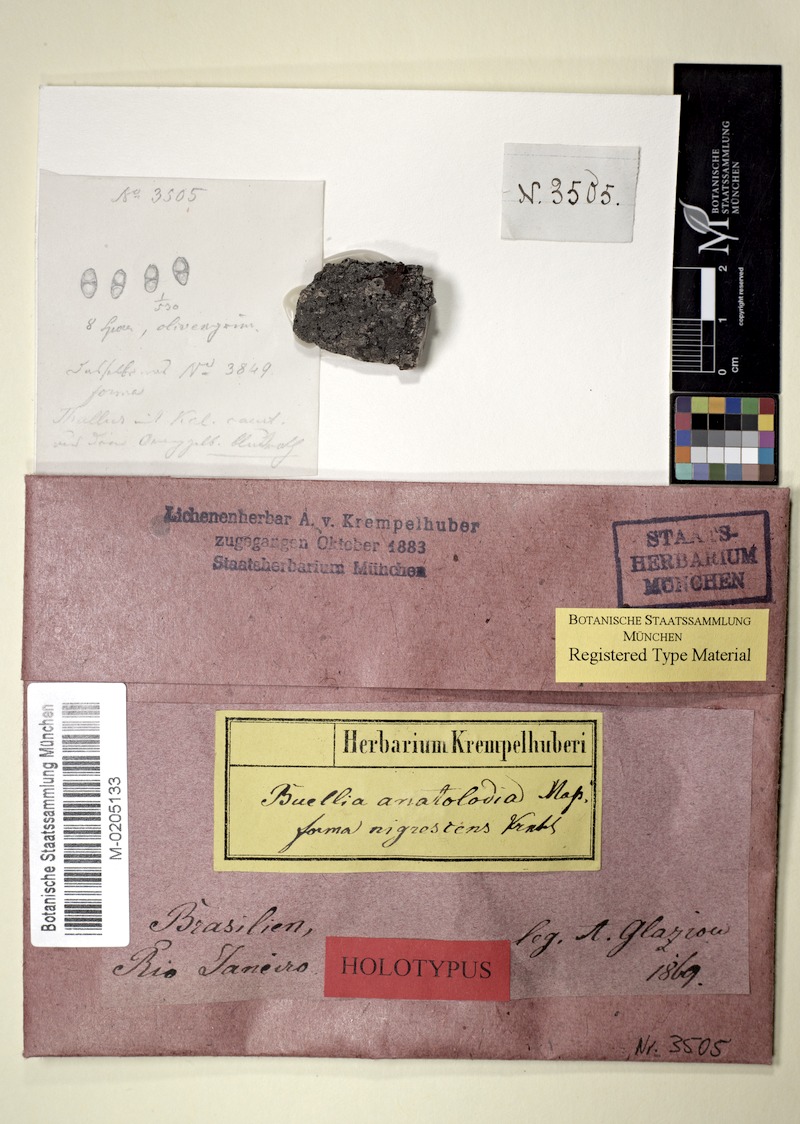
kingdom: Fungi
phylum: Ascomycota
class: Lecanoromycetes
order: Caliciales
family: Caliciaceae
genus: Buellia
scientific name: Buellia
